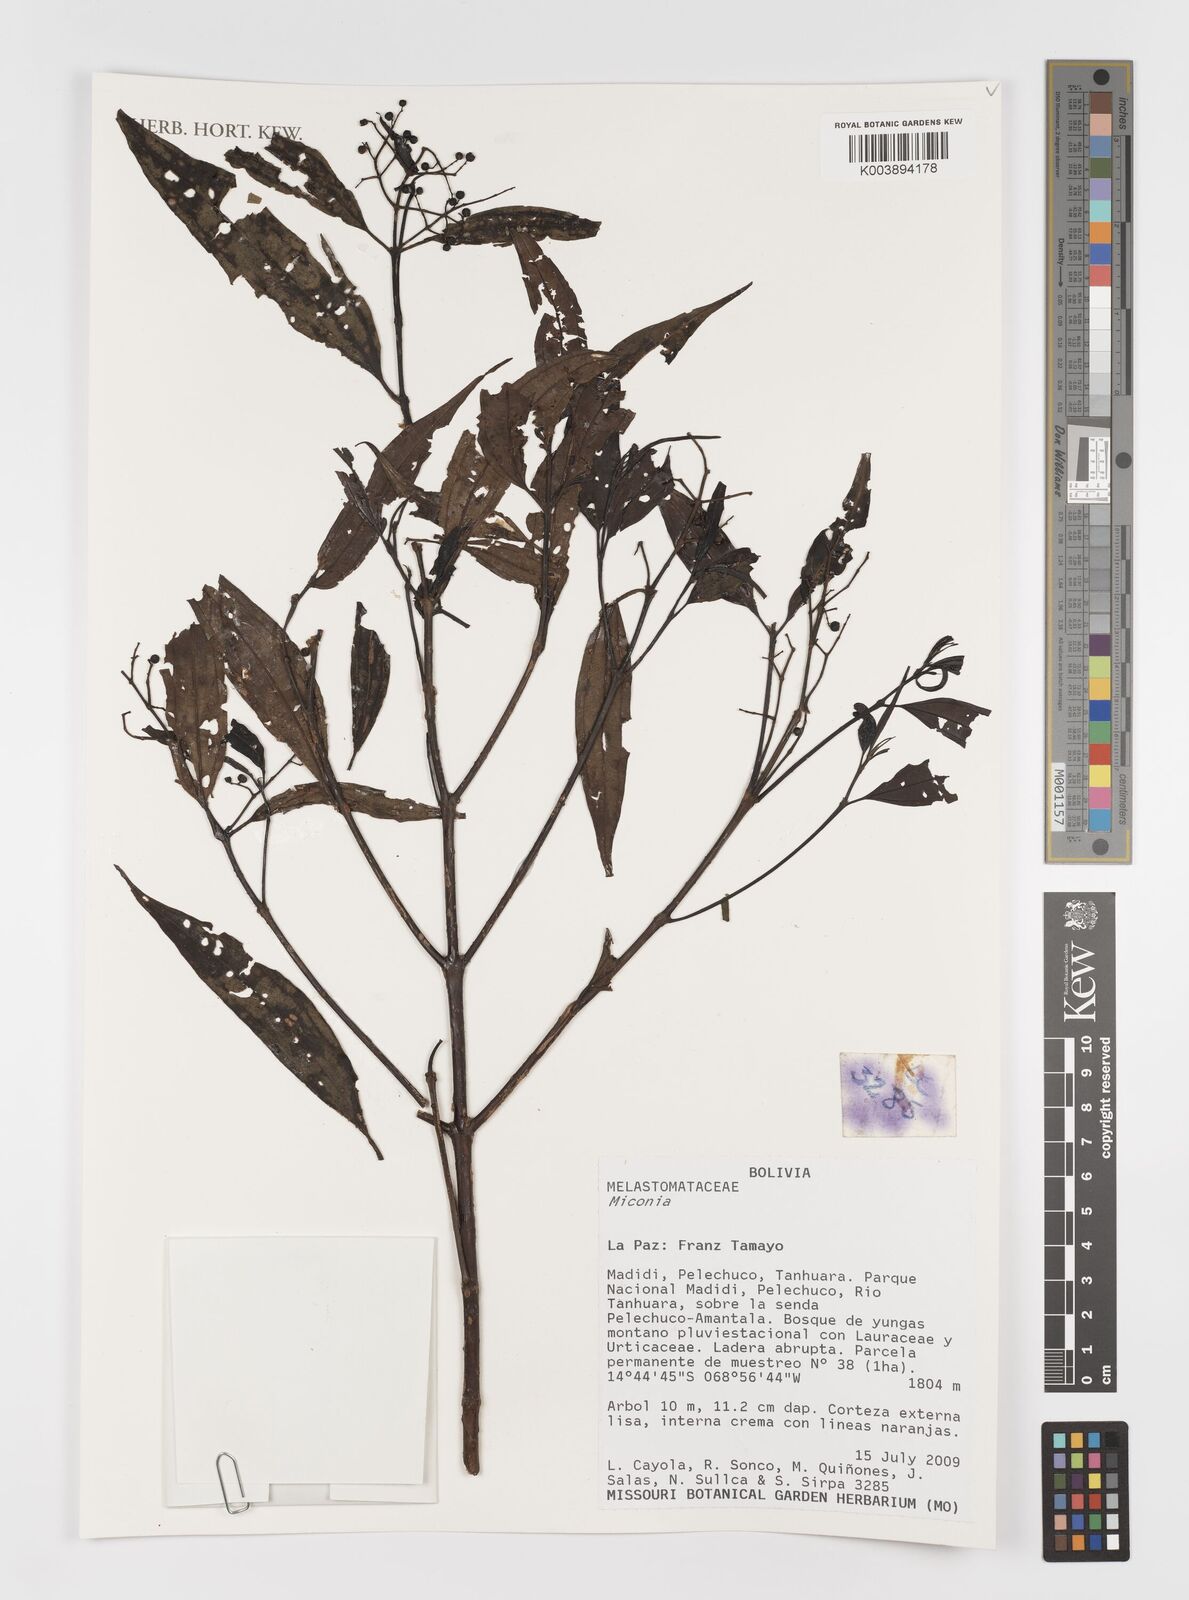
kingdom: Plantae
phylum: Tracheophyta
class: Magnoliopsida
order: Myrtales
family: Melastomataceae
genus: Miconia
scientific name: Miconia
